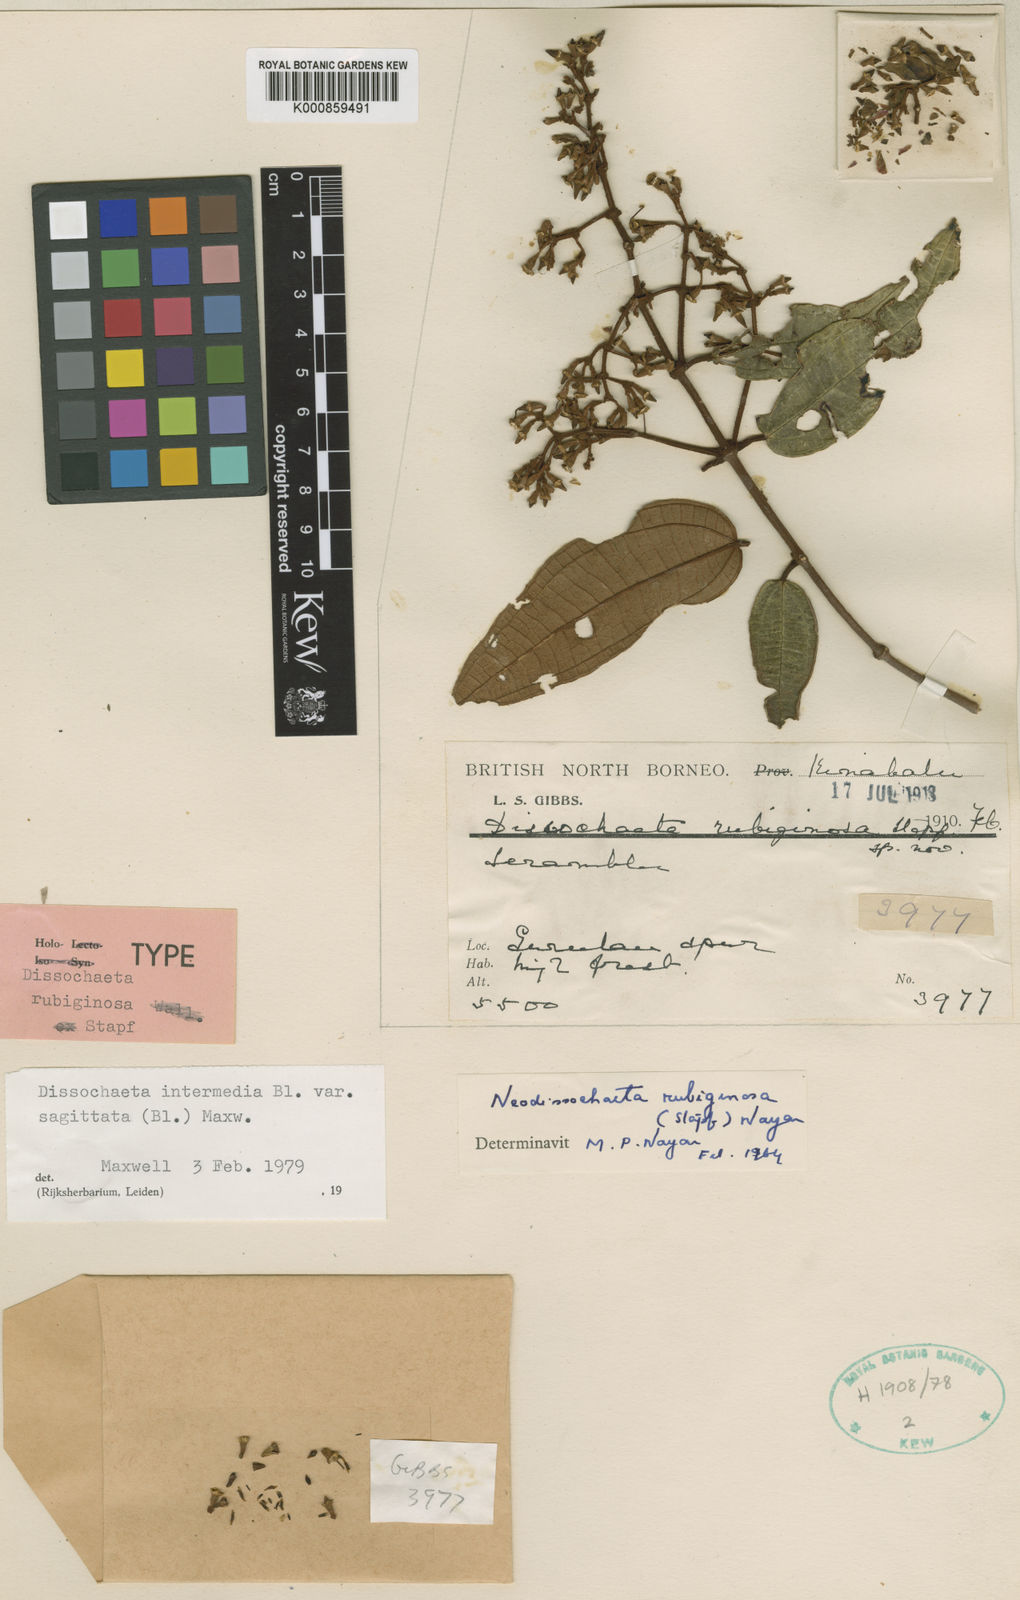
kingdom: Plantae
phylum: Tracheophyta
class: Magnoliopsida
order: Myrtales
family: Melastomataceae
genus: Dissochaeta
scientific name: Dissochaeta sagittata
